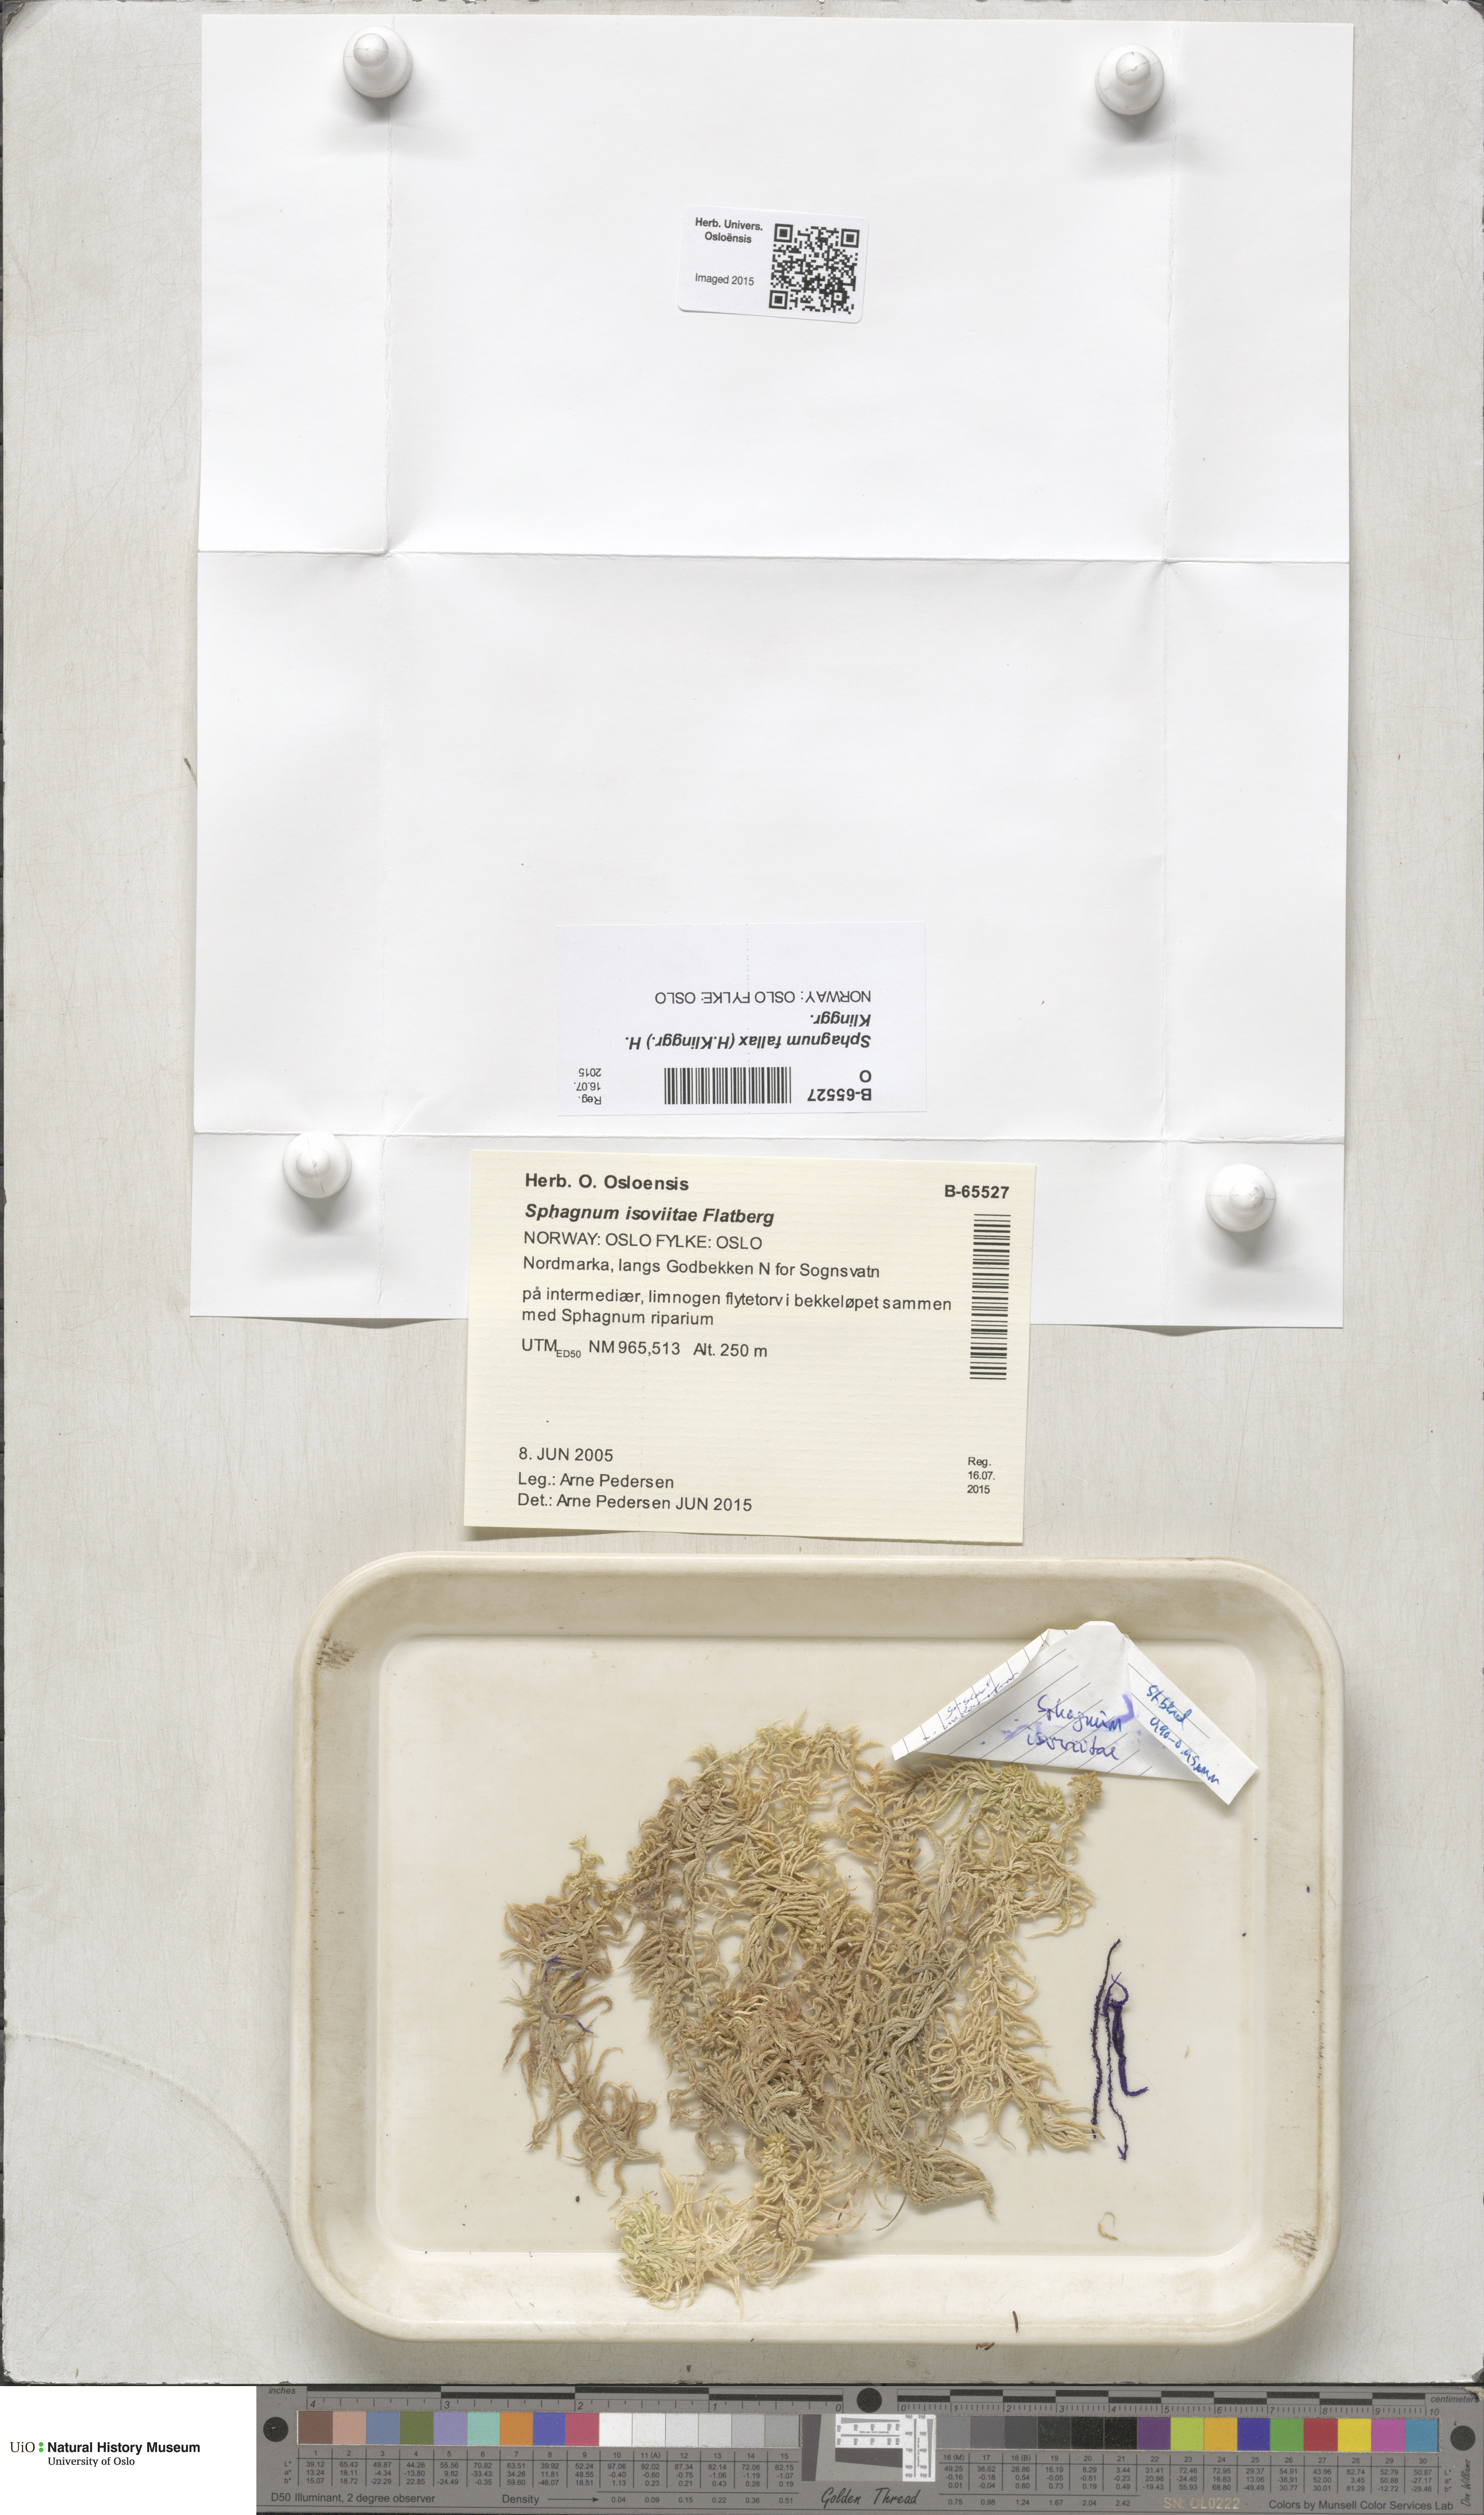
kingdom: Plantae
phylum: Bryophyta
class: Sphagnopsida
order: Sphagnales
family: Sphagnaceae
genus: Sphagnum
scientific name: Sphagnum fallax
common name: Flat-top peat moss
